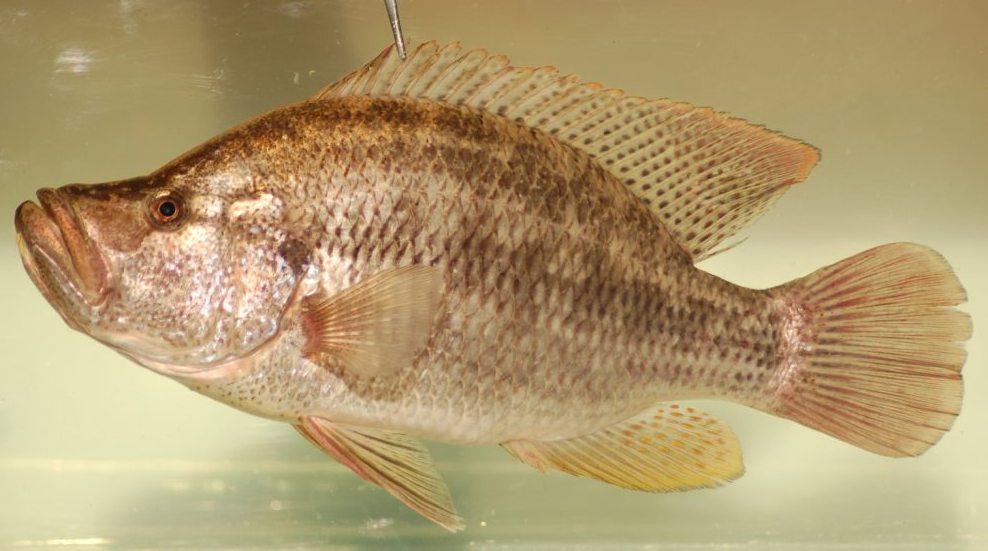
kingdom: Animalia
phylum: Chordata
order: Perciformes
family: Cichlidae
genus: Serranochromis
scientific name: Serranochromis altus
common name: Humpback largemouth
